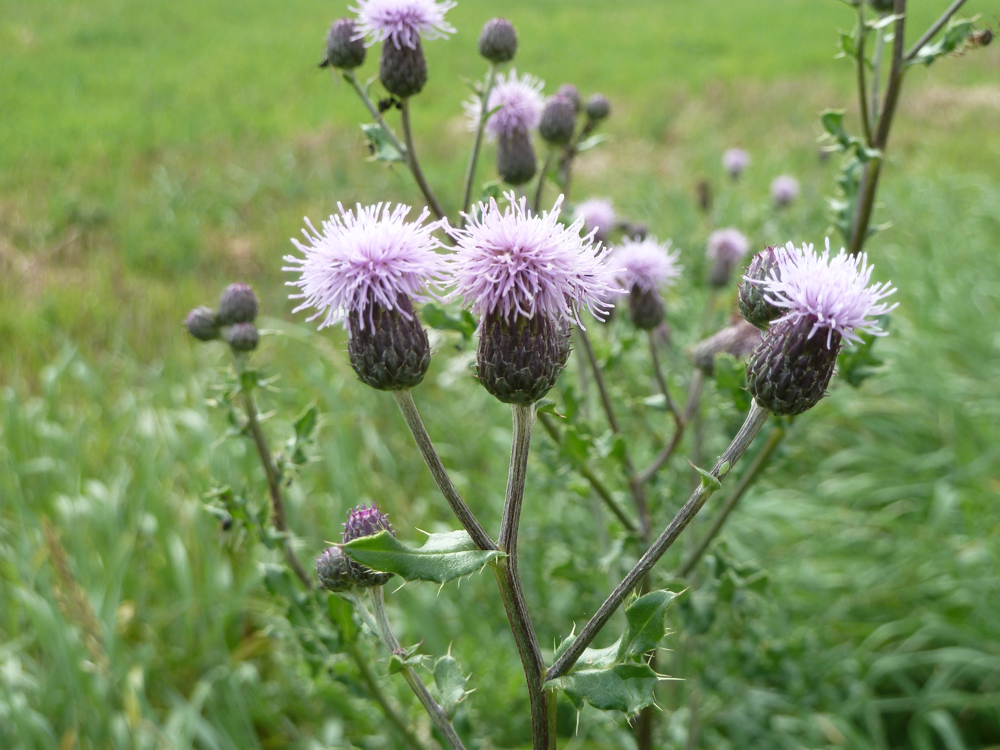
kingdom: Plantae
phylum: Tracheophyta
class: Magnoliopsida
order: Asterales
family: Asteraceae
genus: Cirsium
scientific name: Cirsium arvense
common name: Creeping thistle
